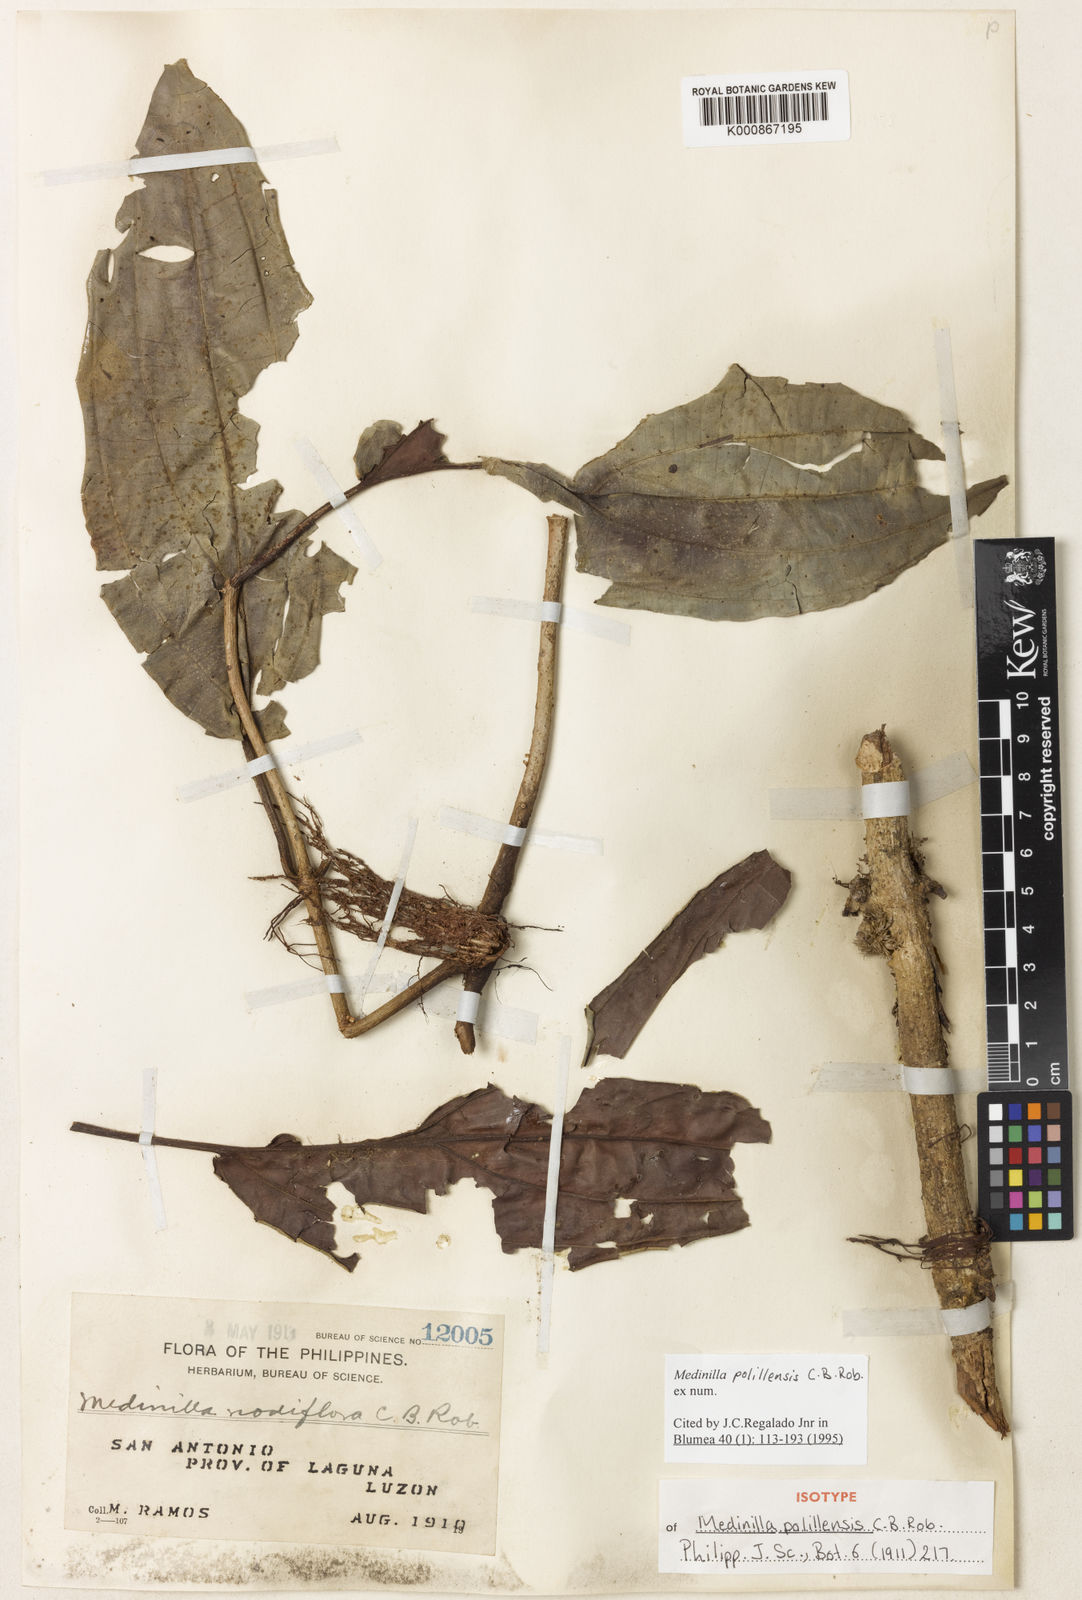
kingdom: Plantae
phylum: Tracheophyta
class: Magnoliopsida
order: Myrtales
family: Melastomataceae
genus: Medinilla
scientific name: Medinilla polillensis
